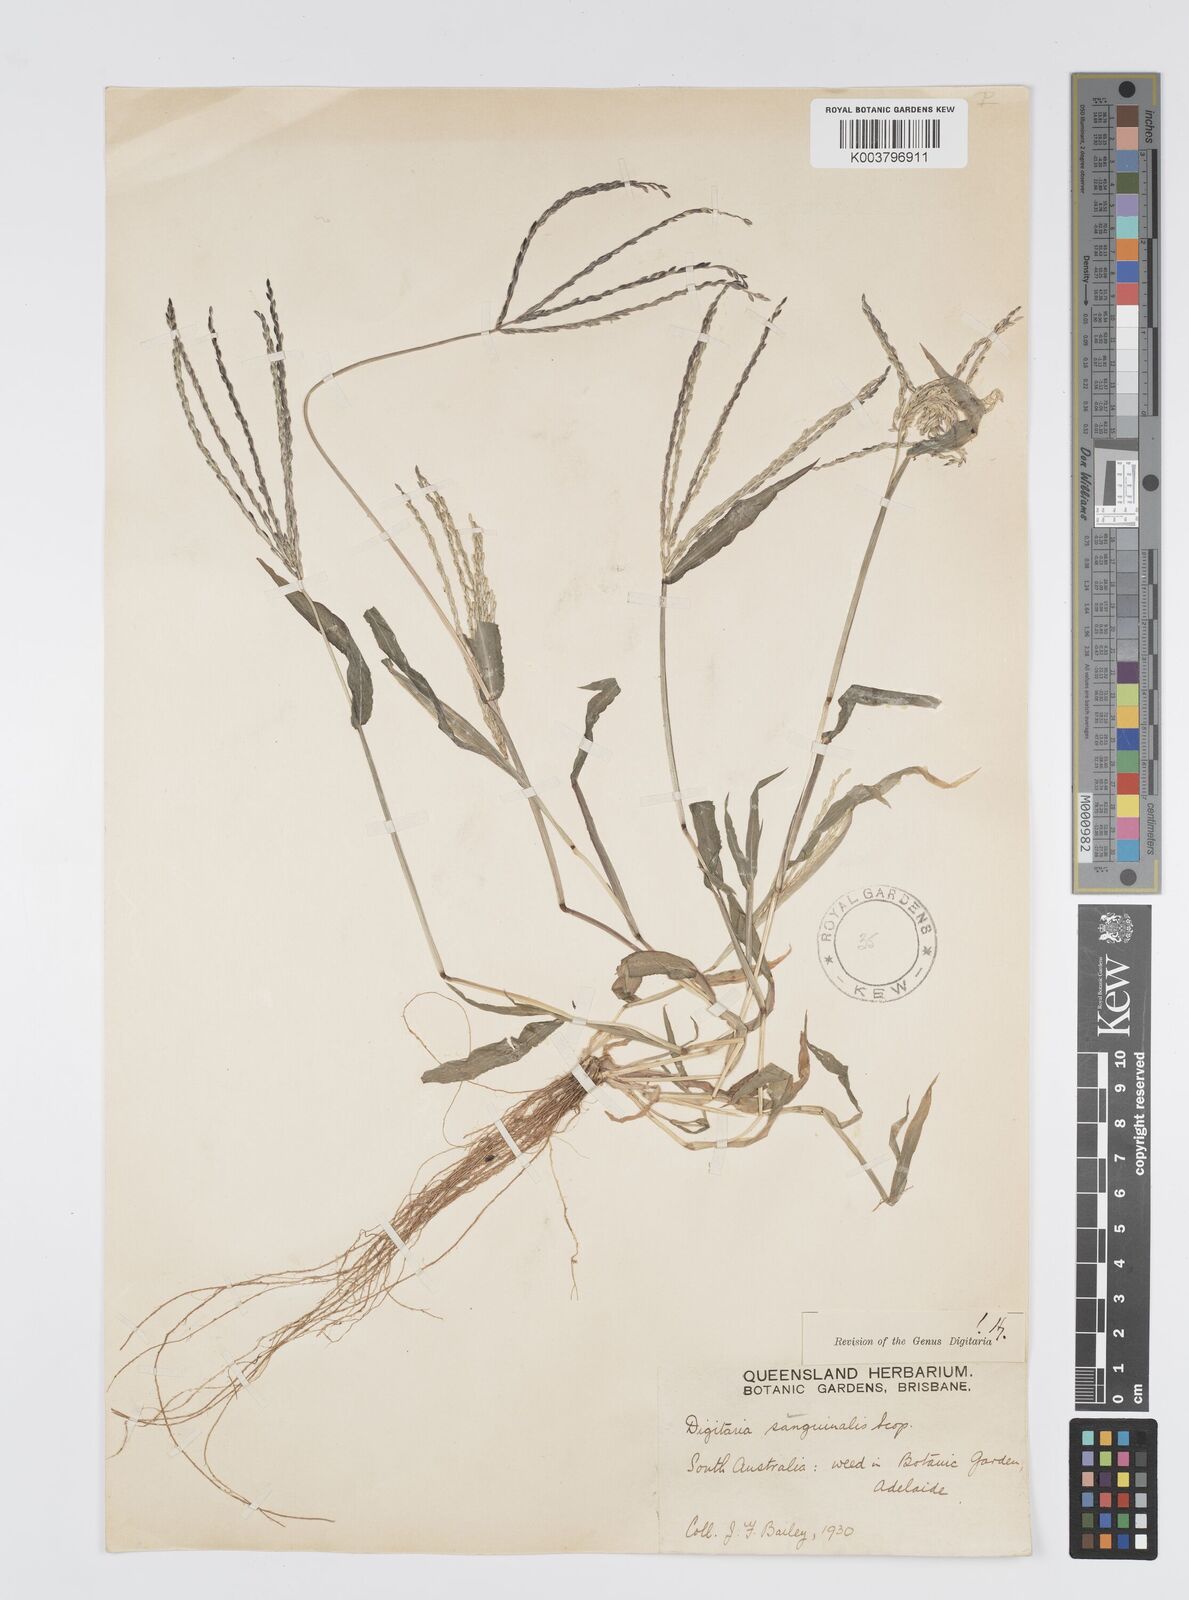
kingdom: Plantae
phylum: Tracheophyta
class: Liliopsida
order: Poales
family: Poaceae
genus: Digitaria
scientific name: Digitaria sanguinalis
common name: Hairy crabgrass
